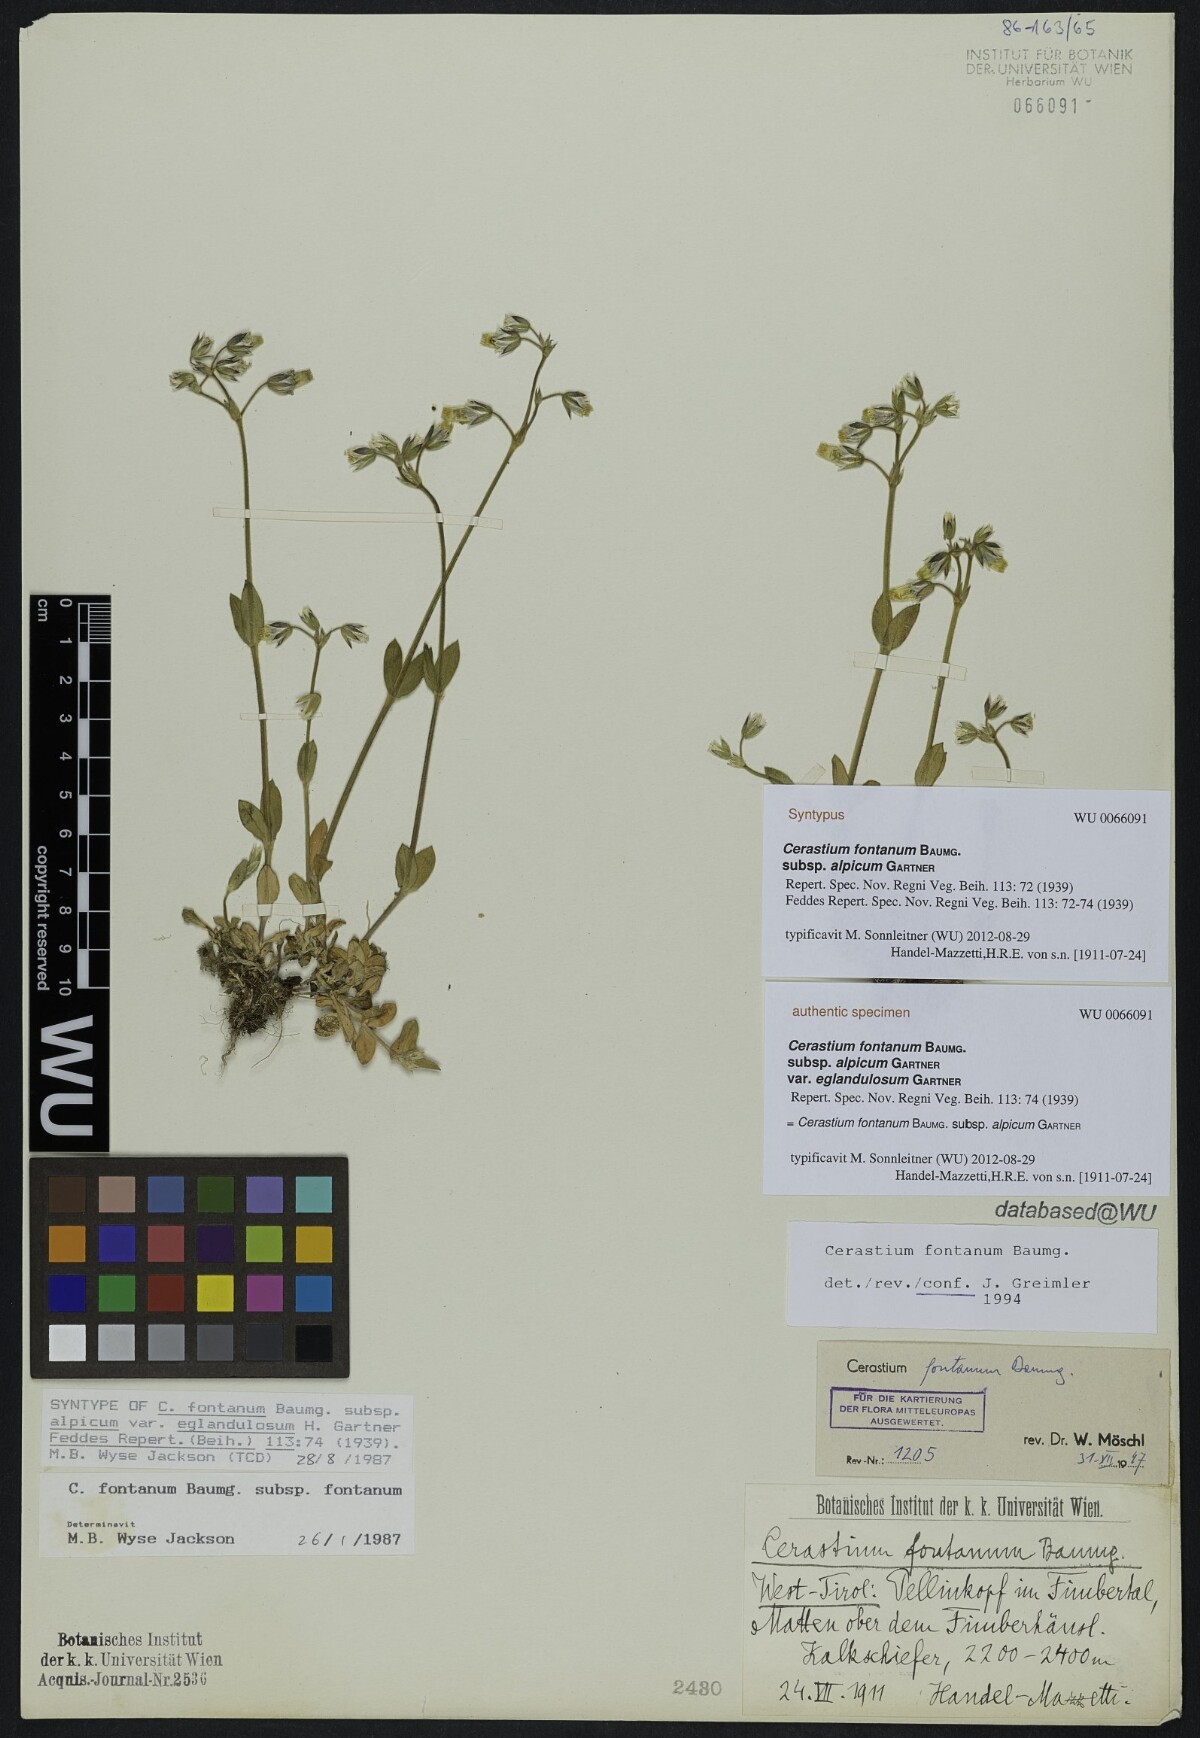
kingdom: Plantae
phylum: Tracheophyta
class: Magnoliopsida
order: Caryophyllales
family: Caryophyllaceae
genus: Cerastium
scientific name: Cerastium fontanum
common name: Common mouse-ear
